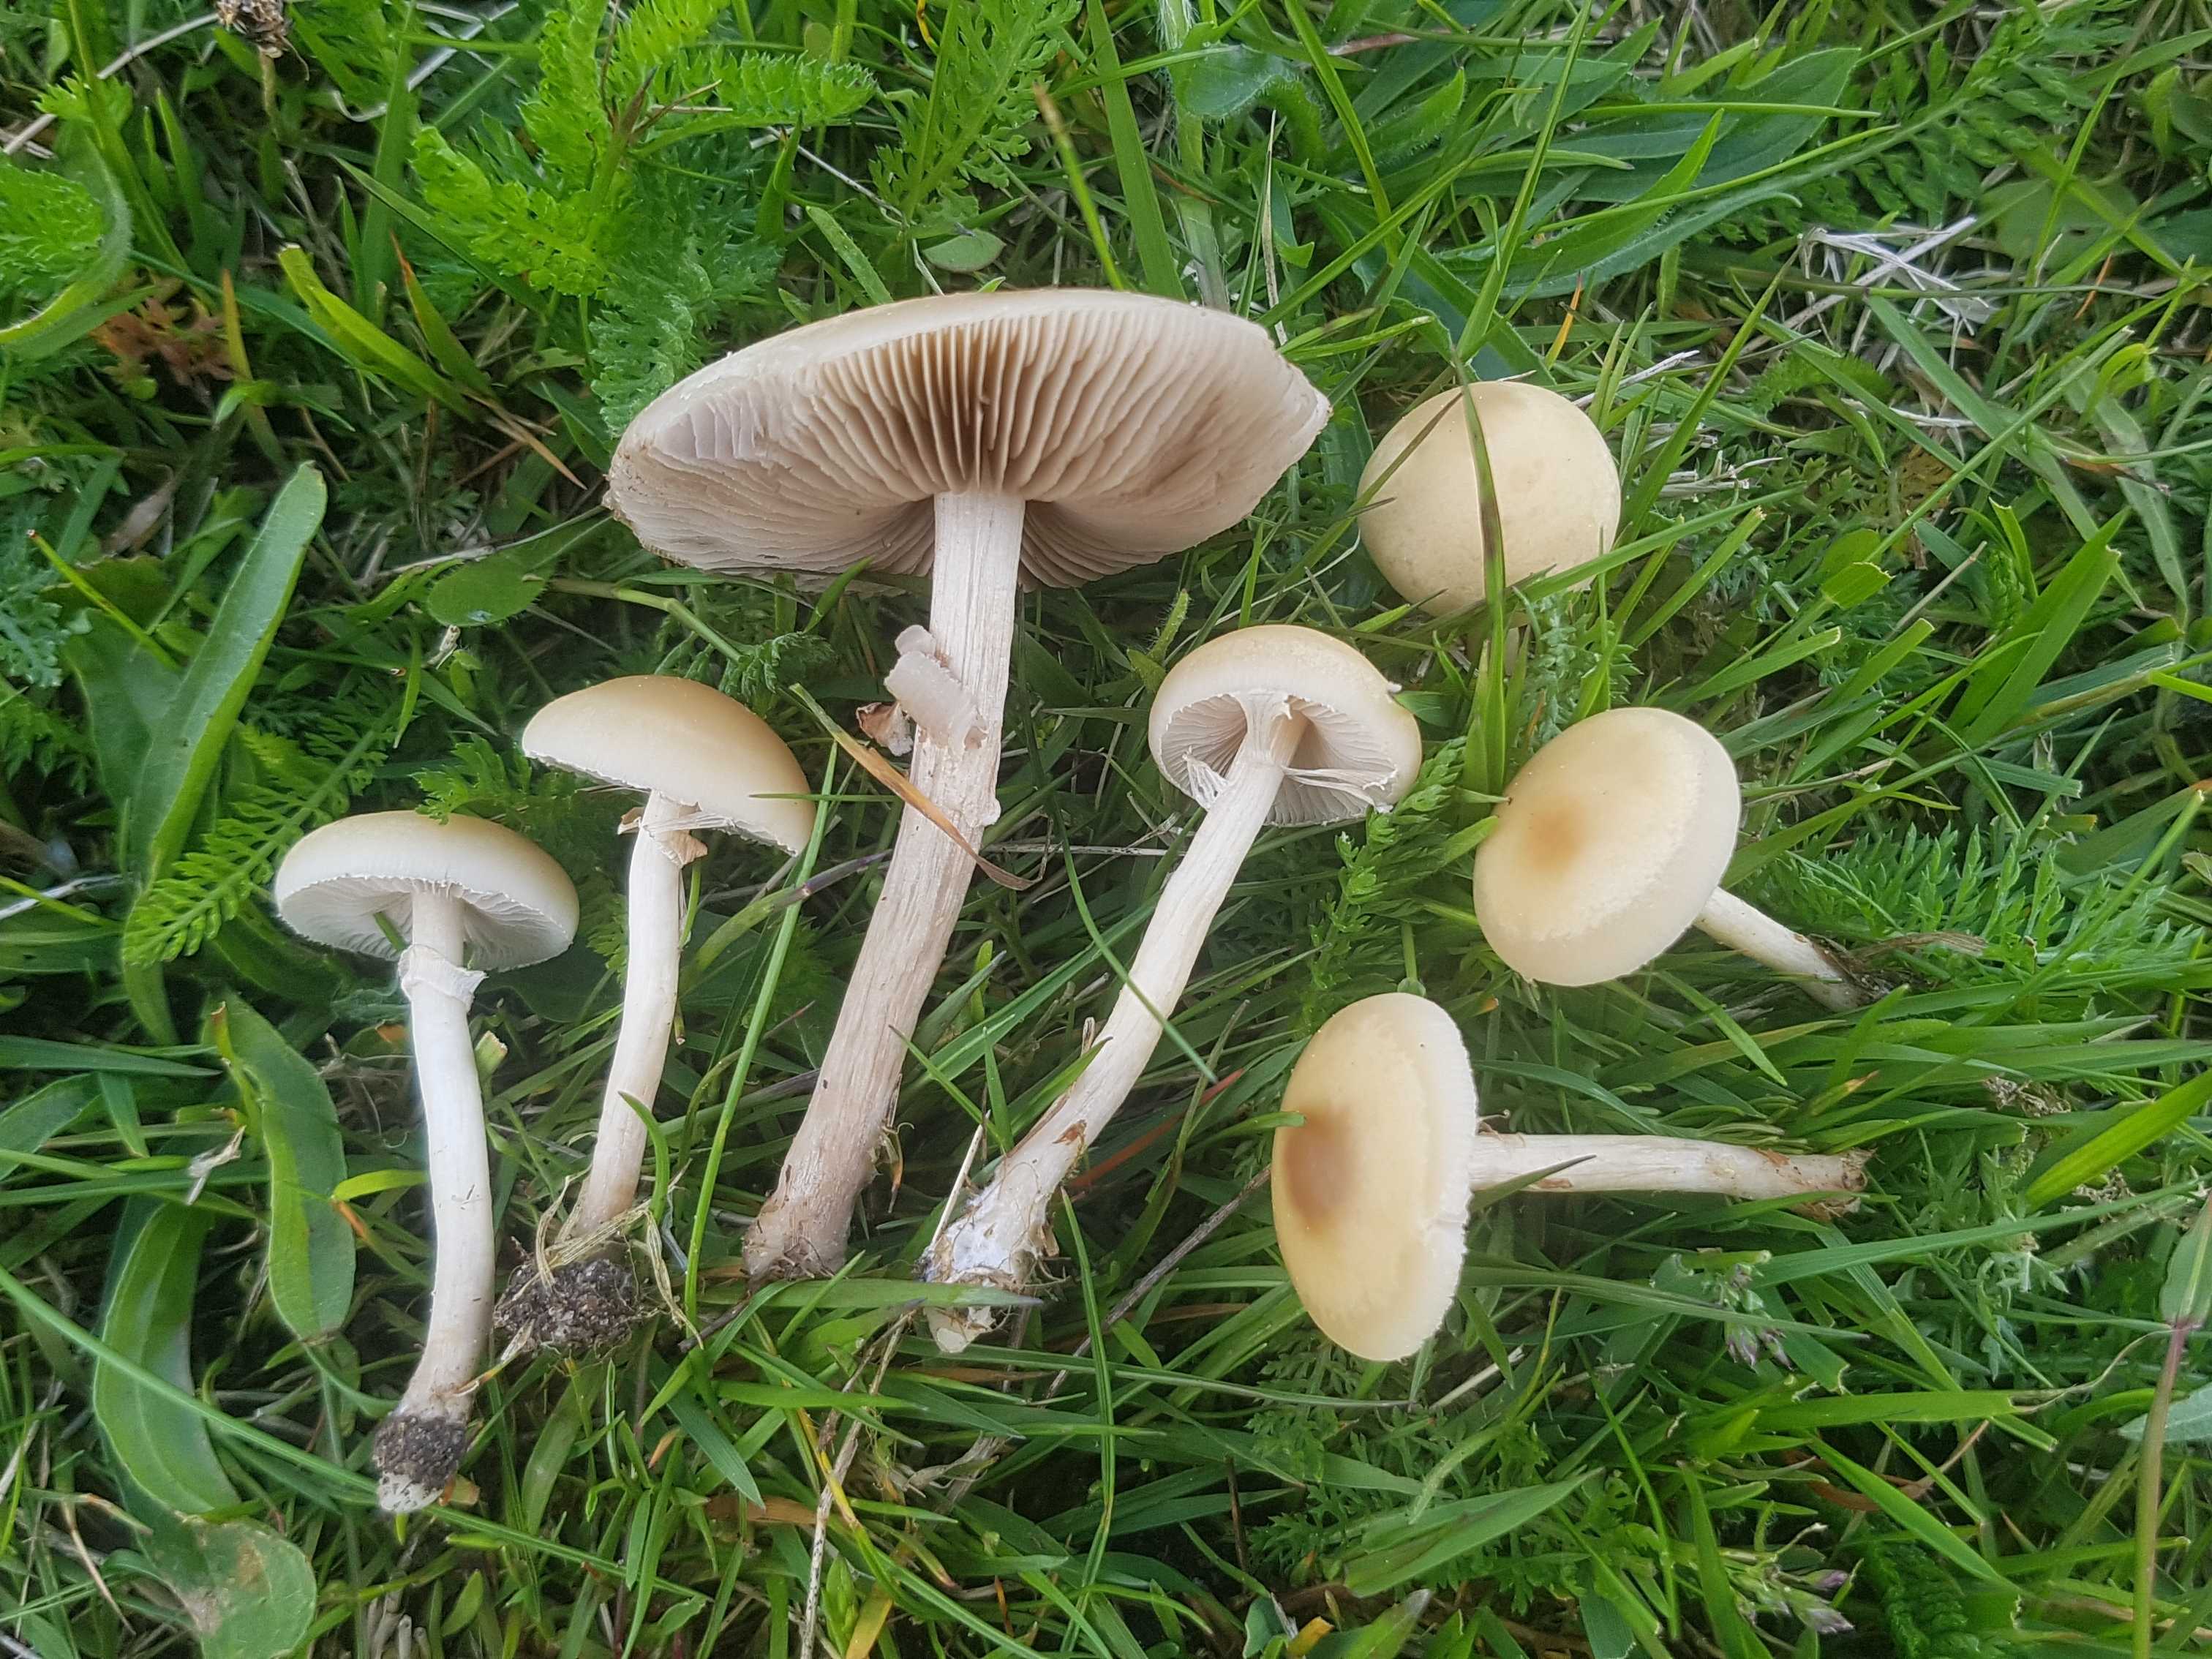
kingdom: Fungi
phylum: Basidiomycota
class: Agaricomycetes
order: Agaricales
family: Strophariaceae
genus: Agrocybe
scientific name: Agrocybe
